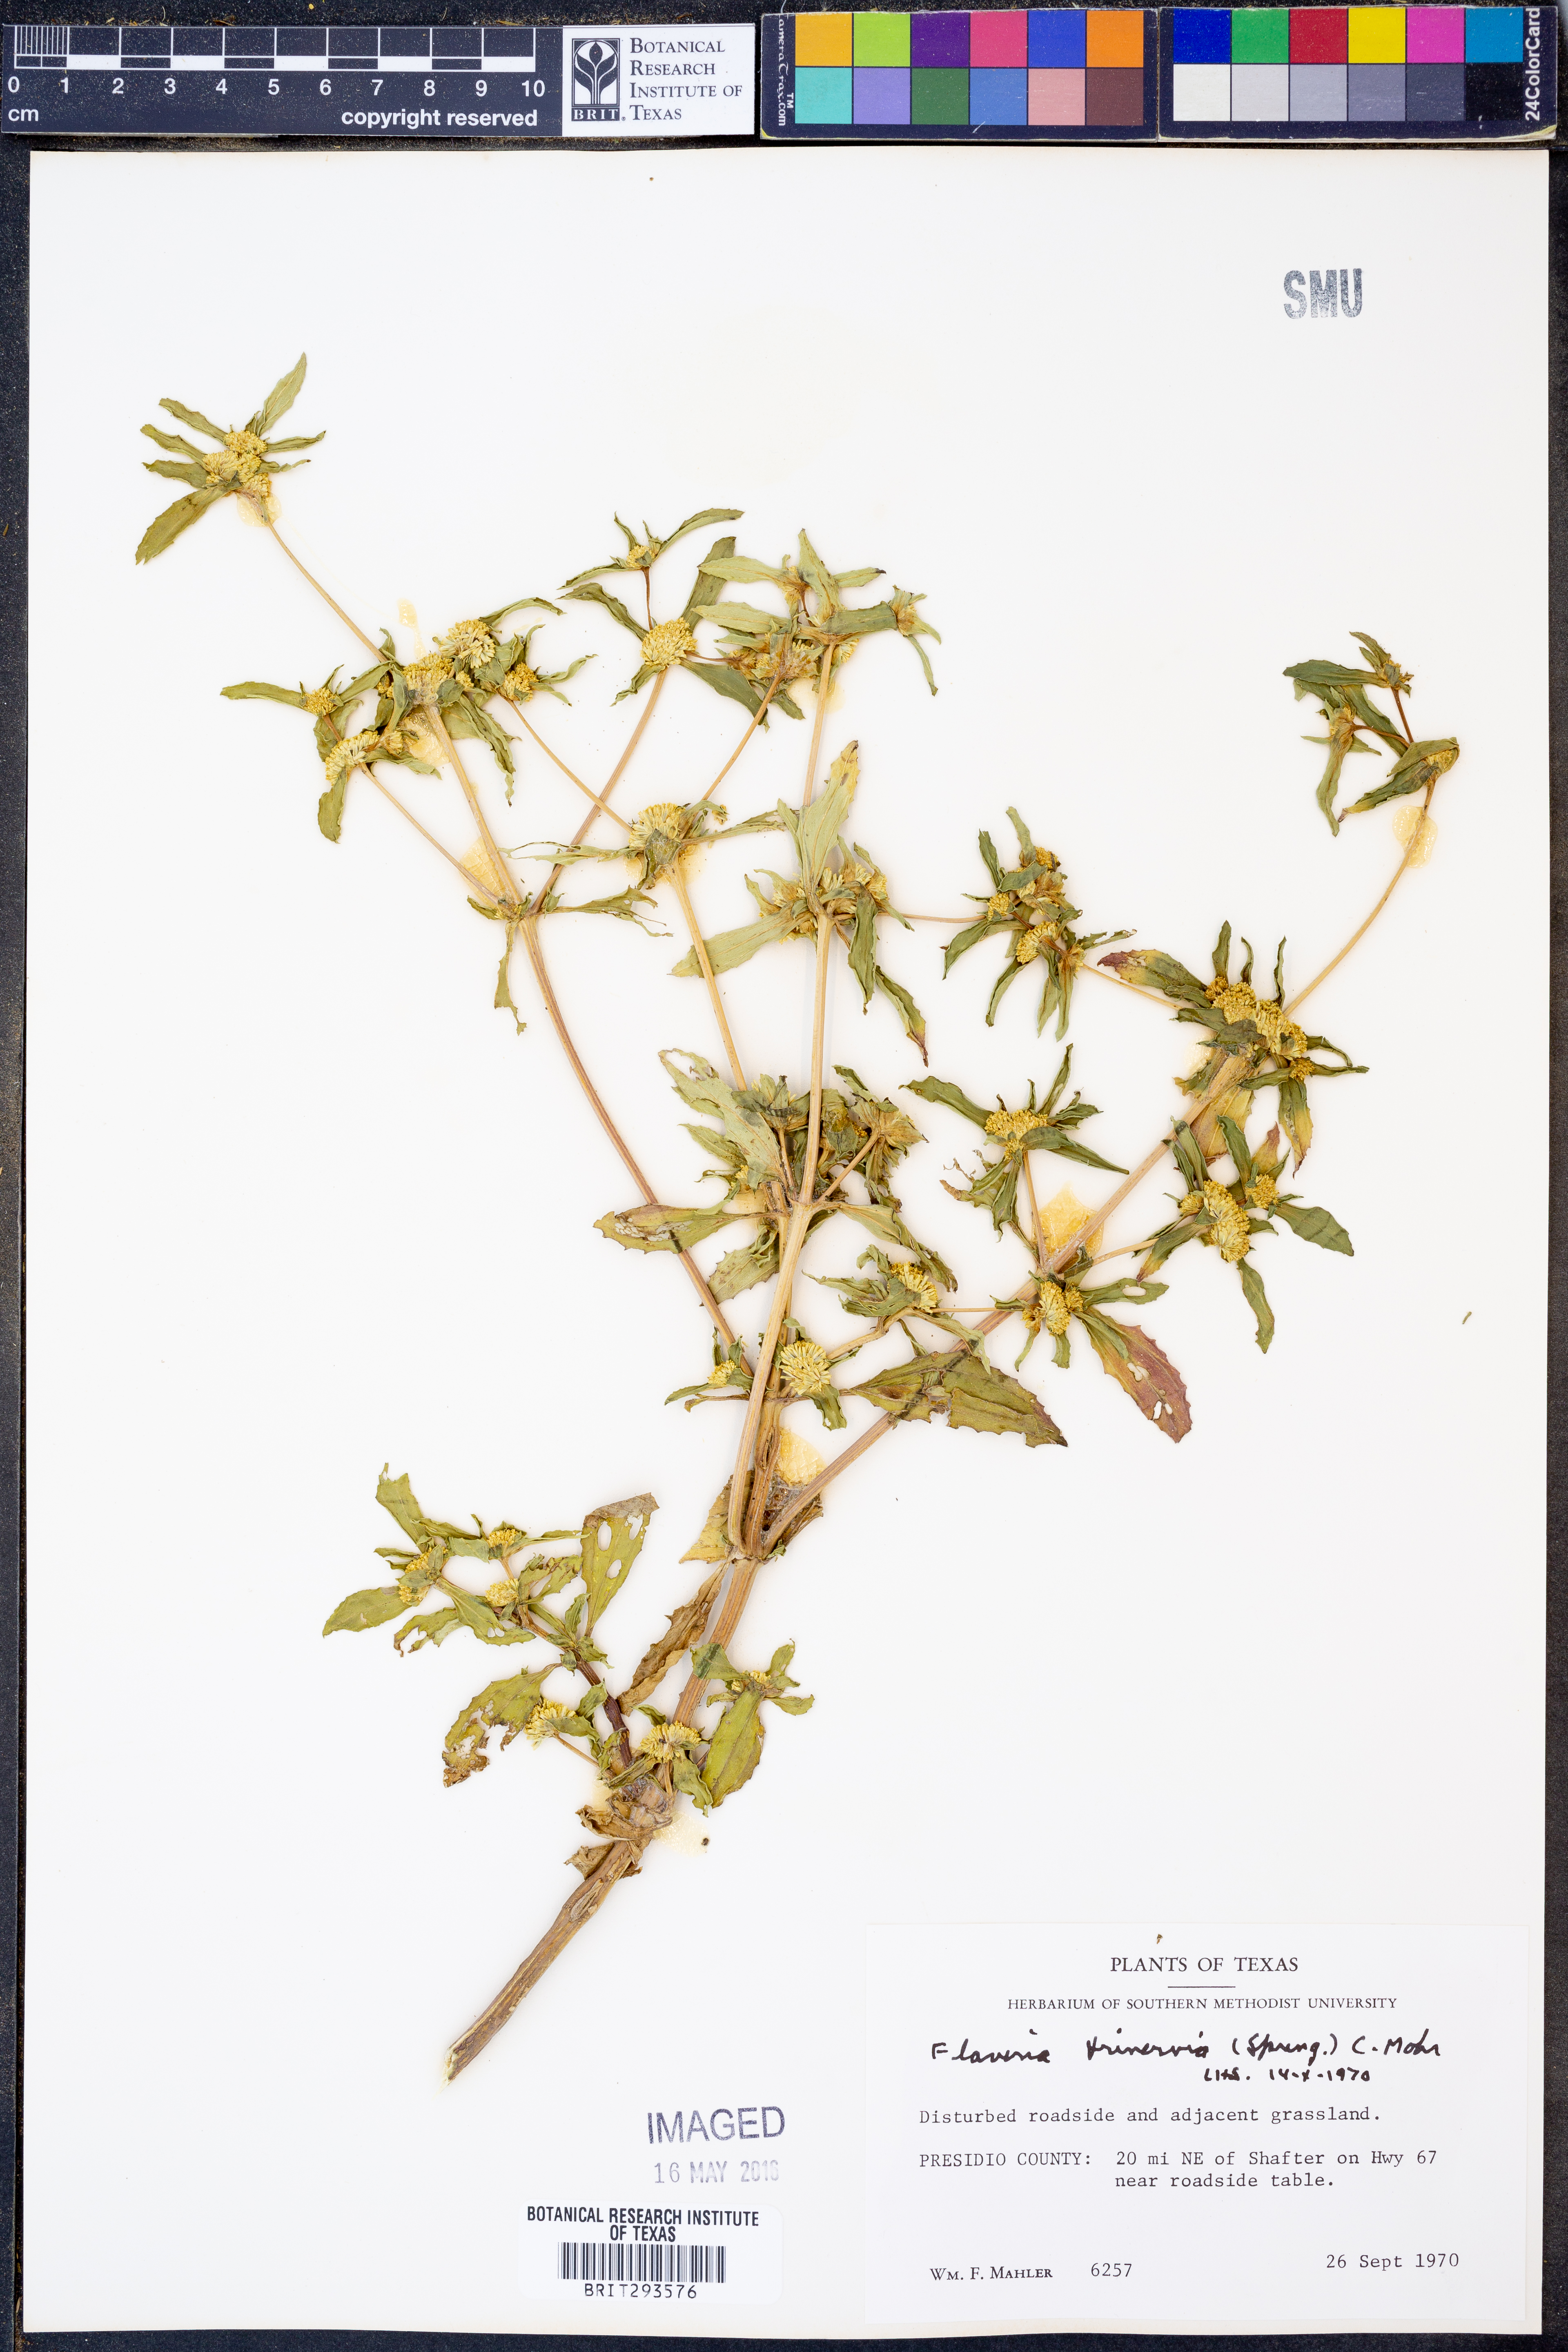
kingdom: Plantae
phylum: Tracheophyta
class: Magnoliopsida
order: Asterales
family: Asteraceae
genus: Flaveria
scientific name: Flaveria trinervia
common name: Clustered yellowtops
